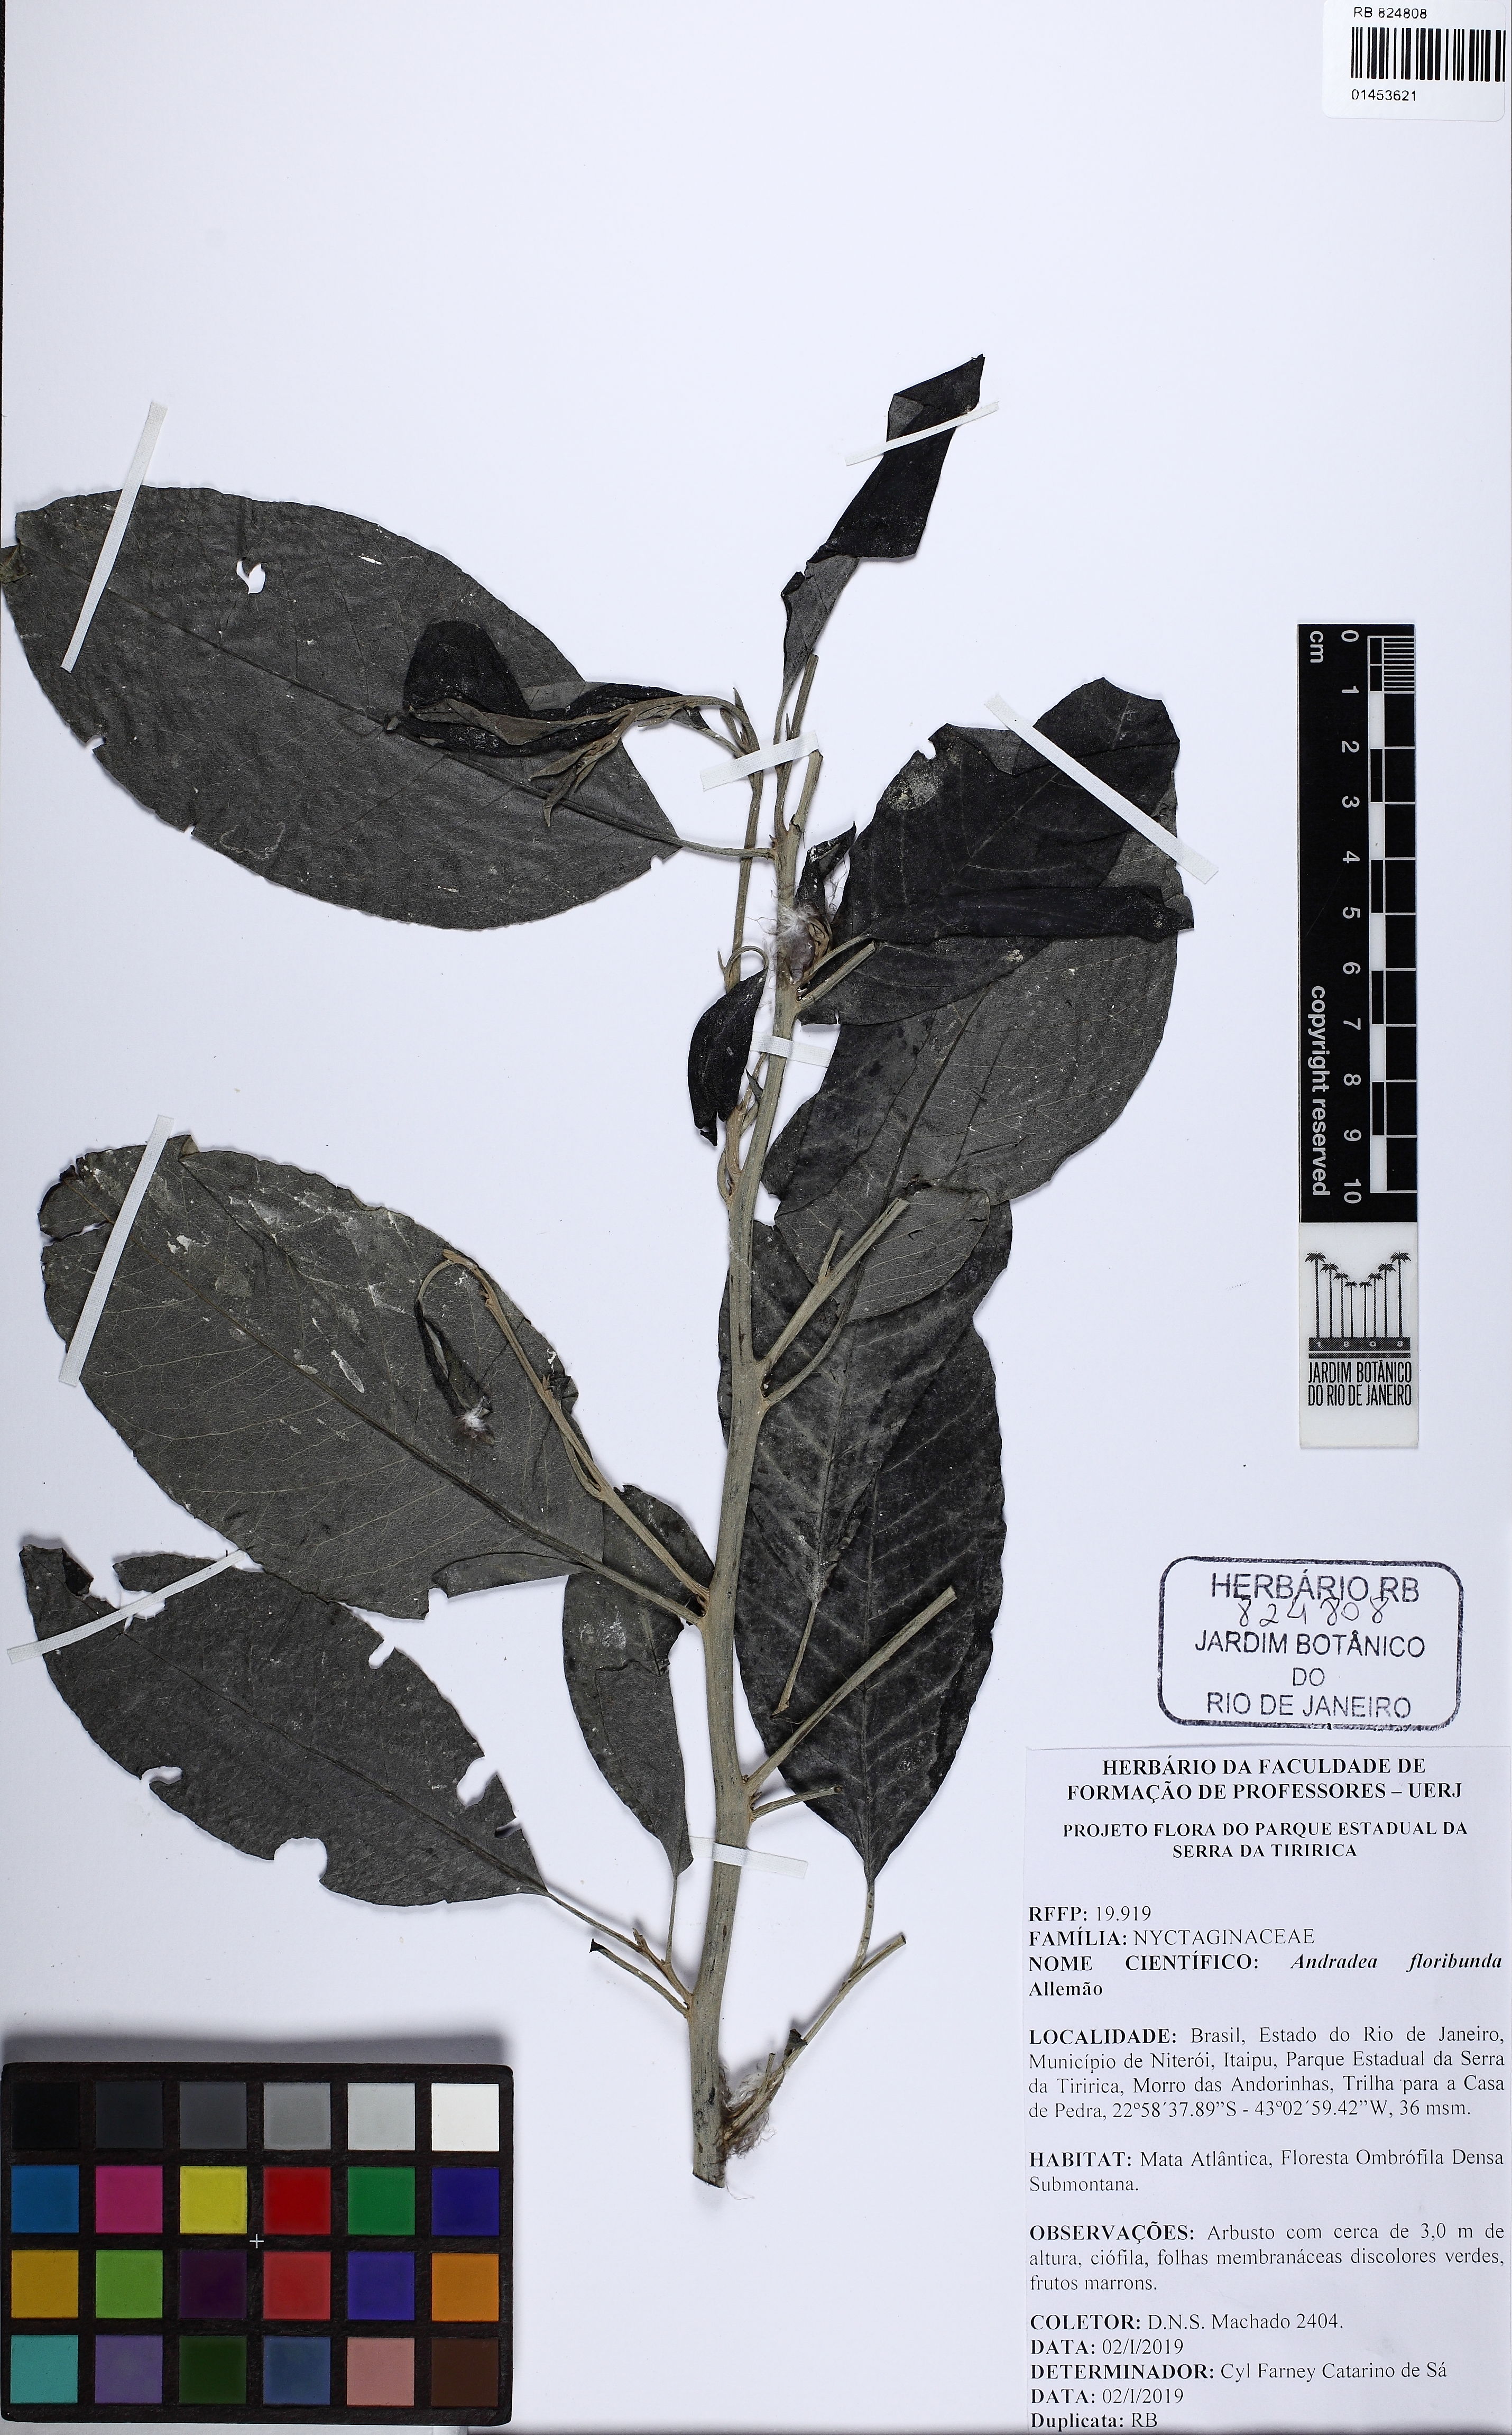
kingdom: Plantae
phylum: Tracheophyta
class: Magnoliopsida
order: Caryophyllales
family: Nyctaginaceae
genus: Andradea
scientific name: Andradea floribunda
